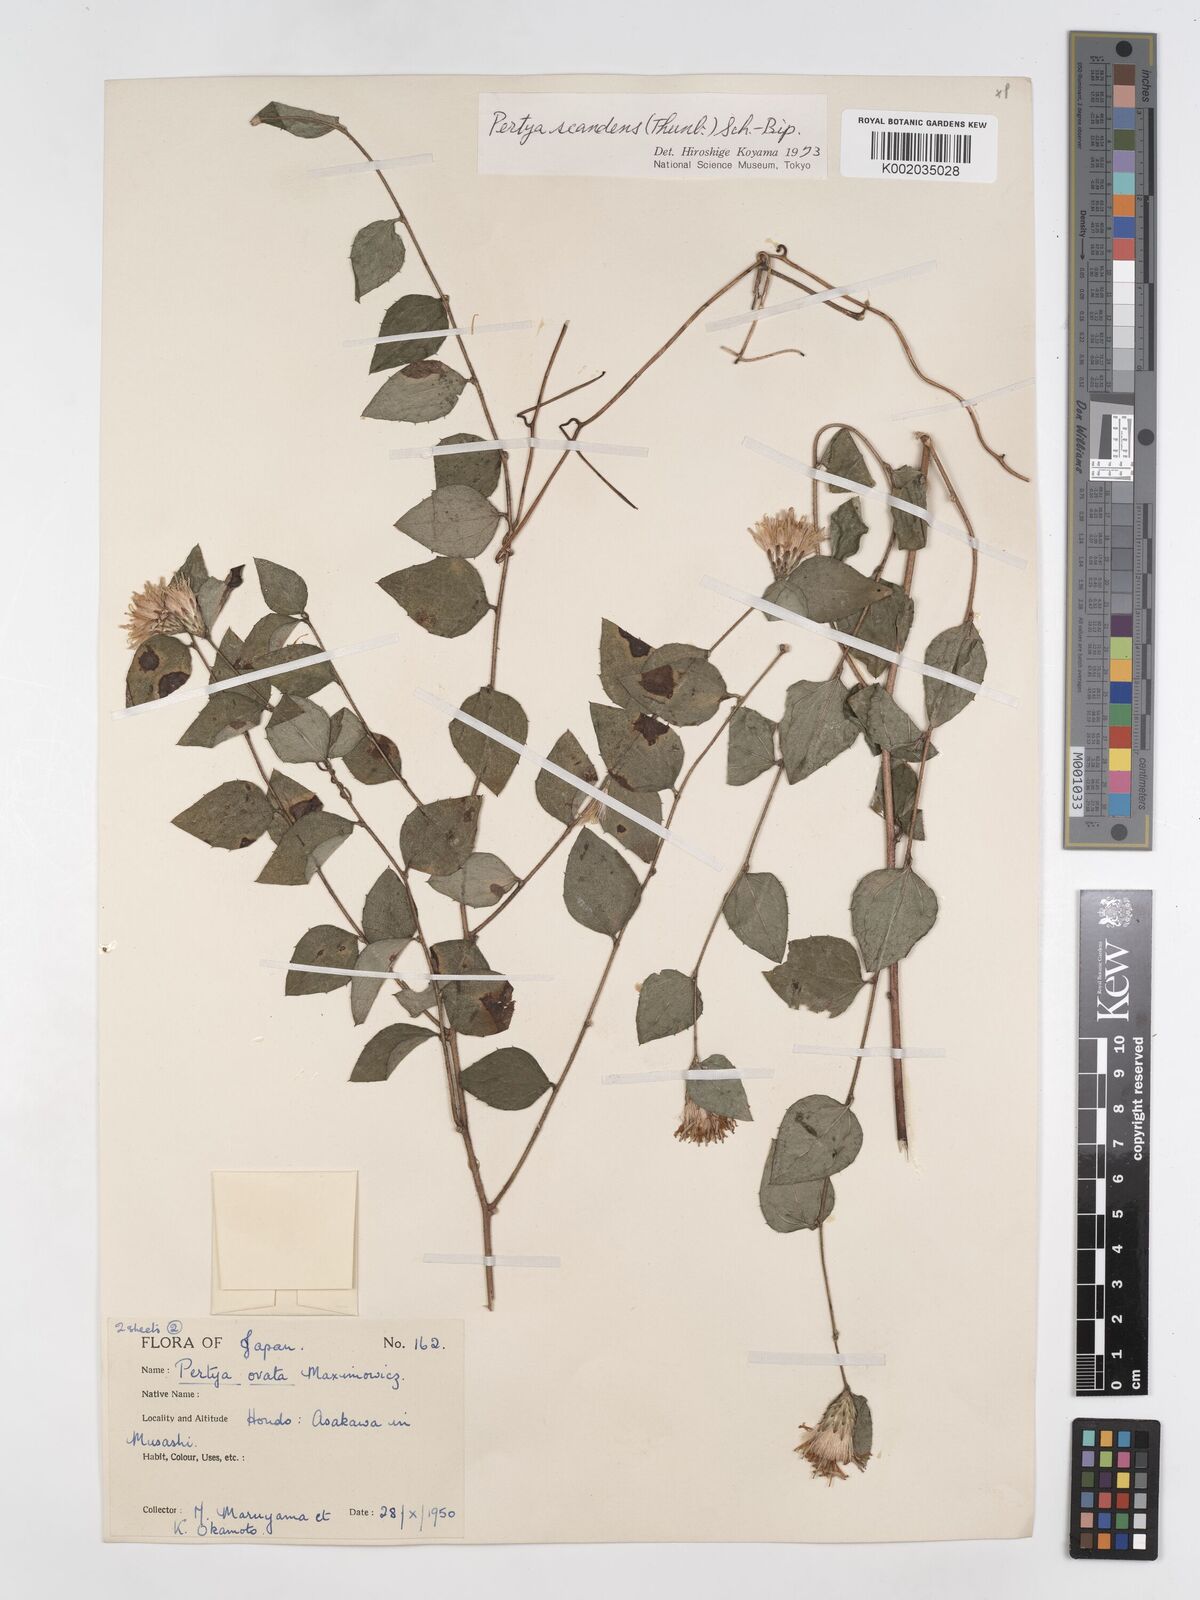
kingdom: Plantae
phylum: Tracheophyta
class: Magnoliopsida
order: Asterales
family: Asteraceae
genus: Pertya
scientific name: Pertya scandens
